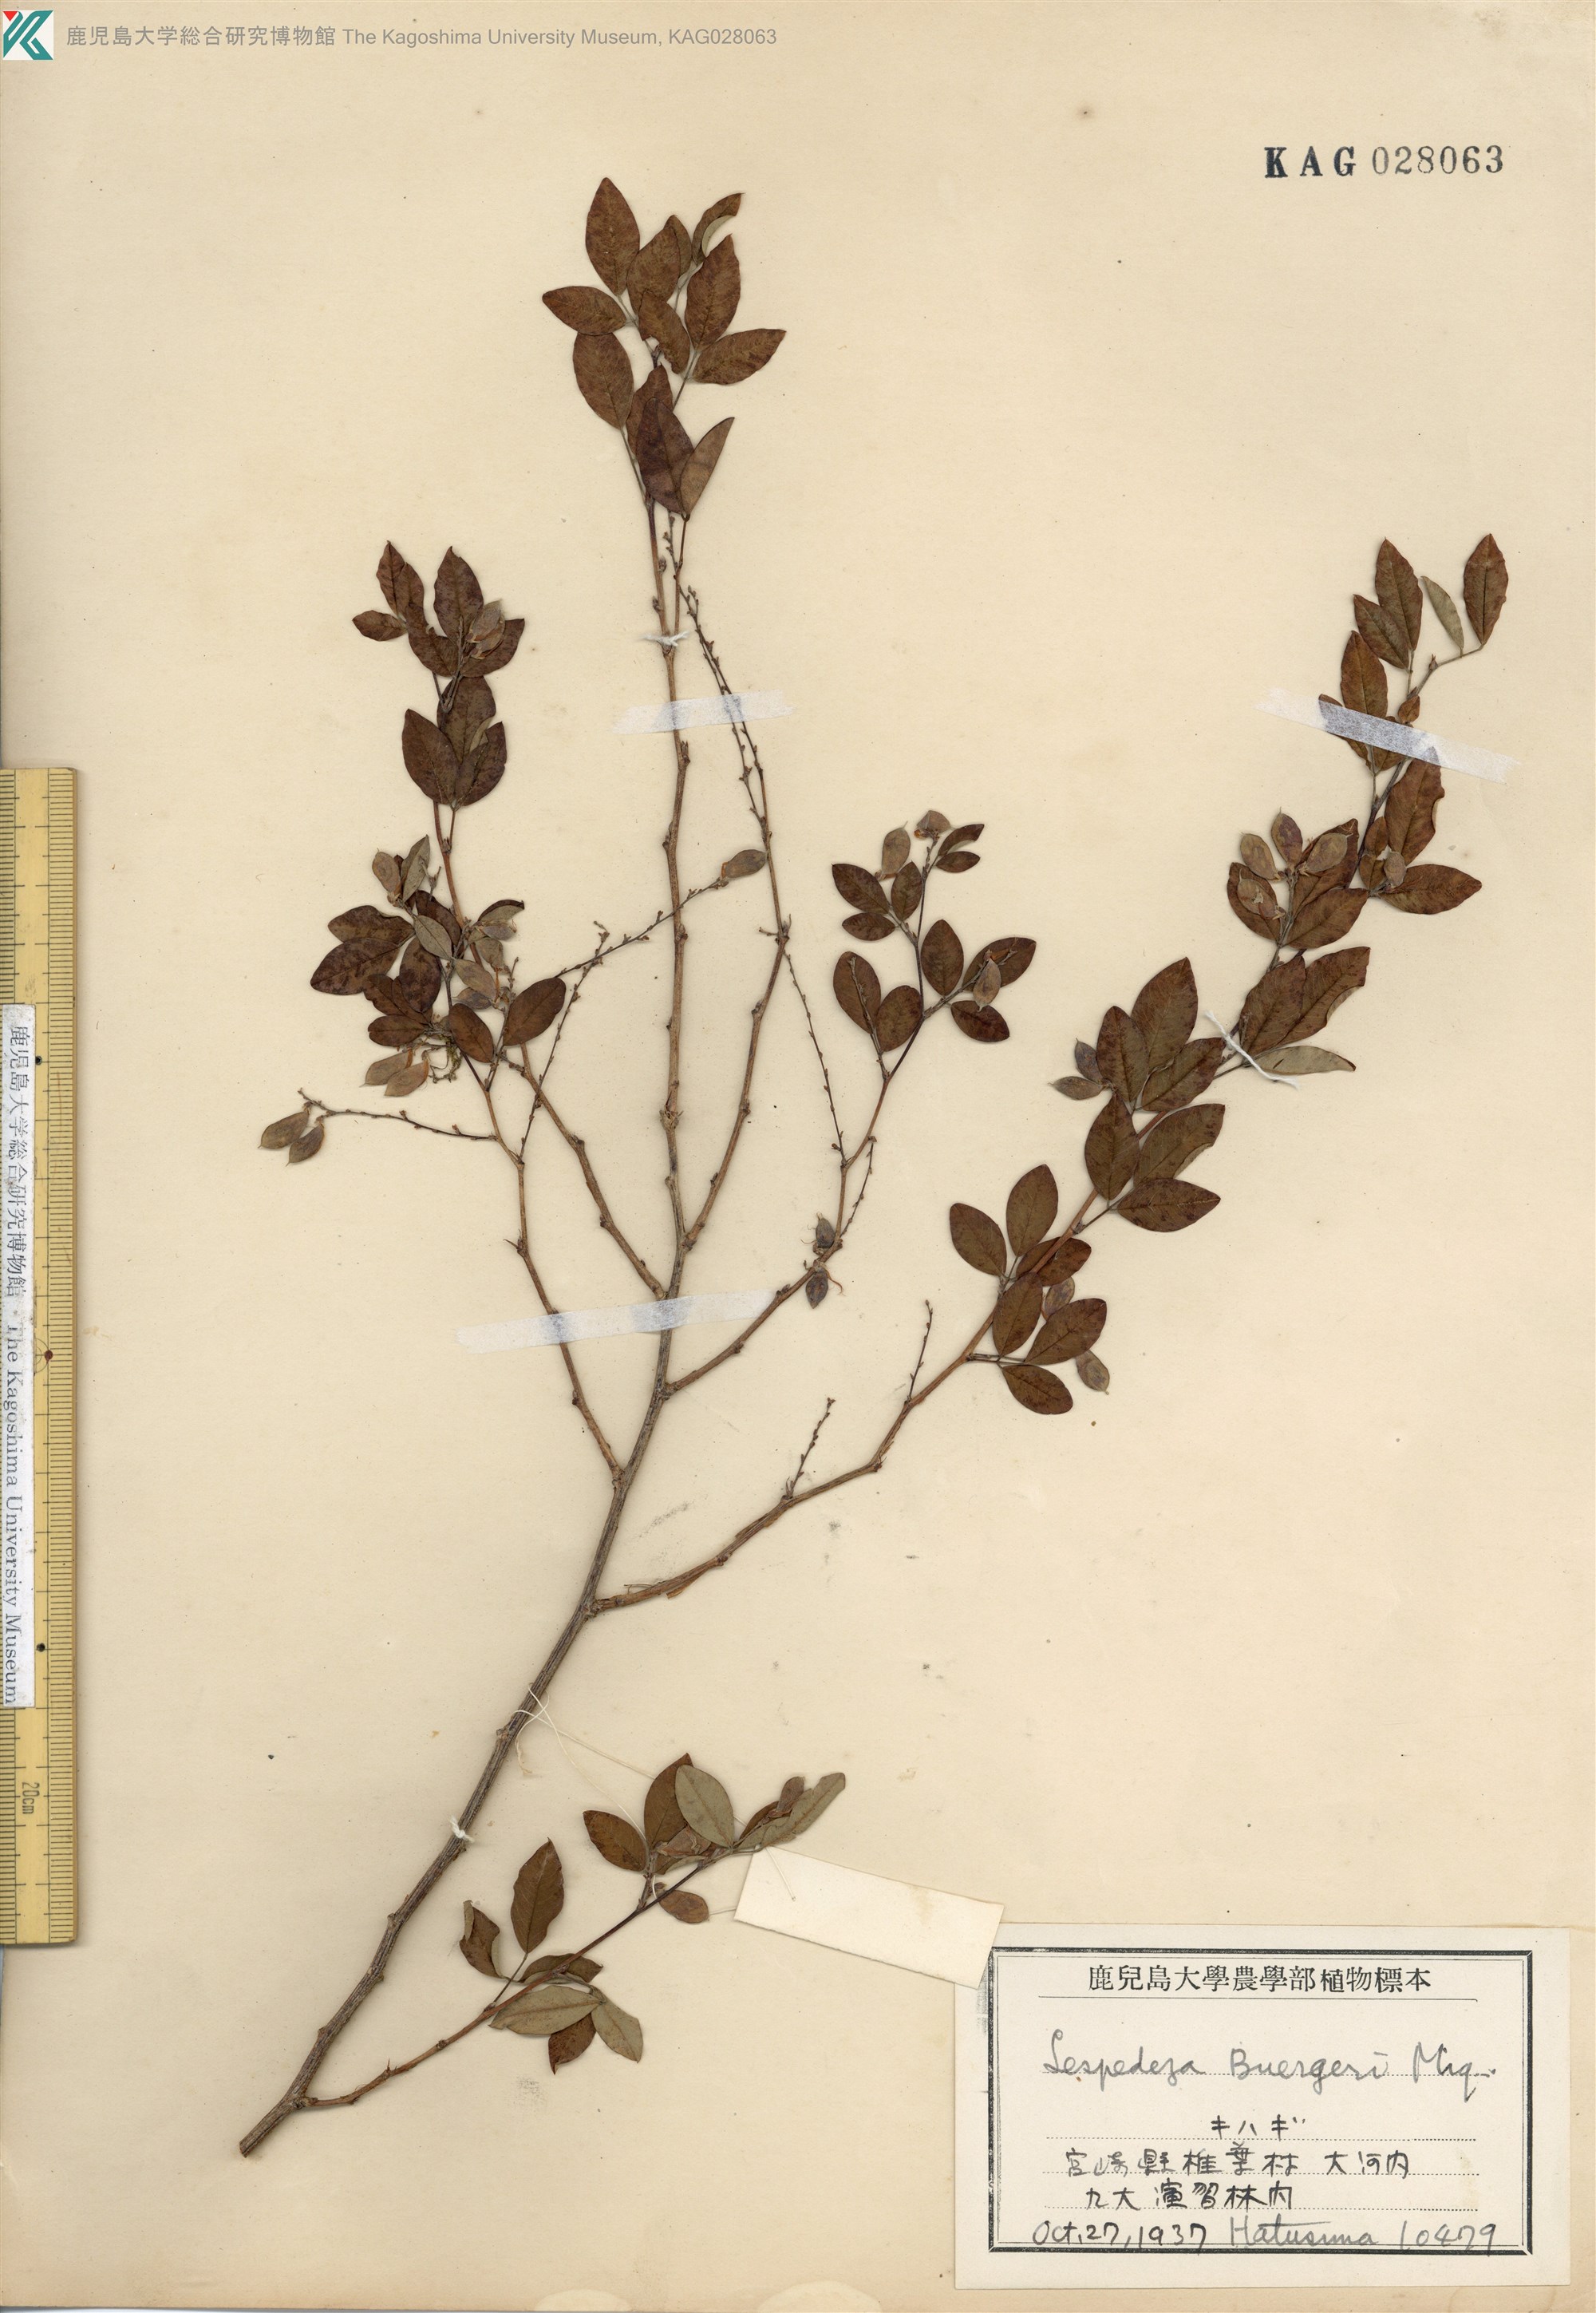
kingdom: Plantae
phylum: Tracheophyta
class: Magnoliopsida
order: Fabales
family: Fabaceae
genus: Lespedeza
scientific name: Lespedeza buergeri
